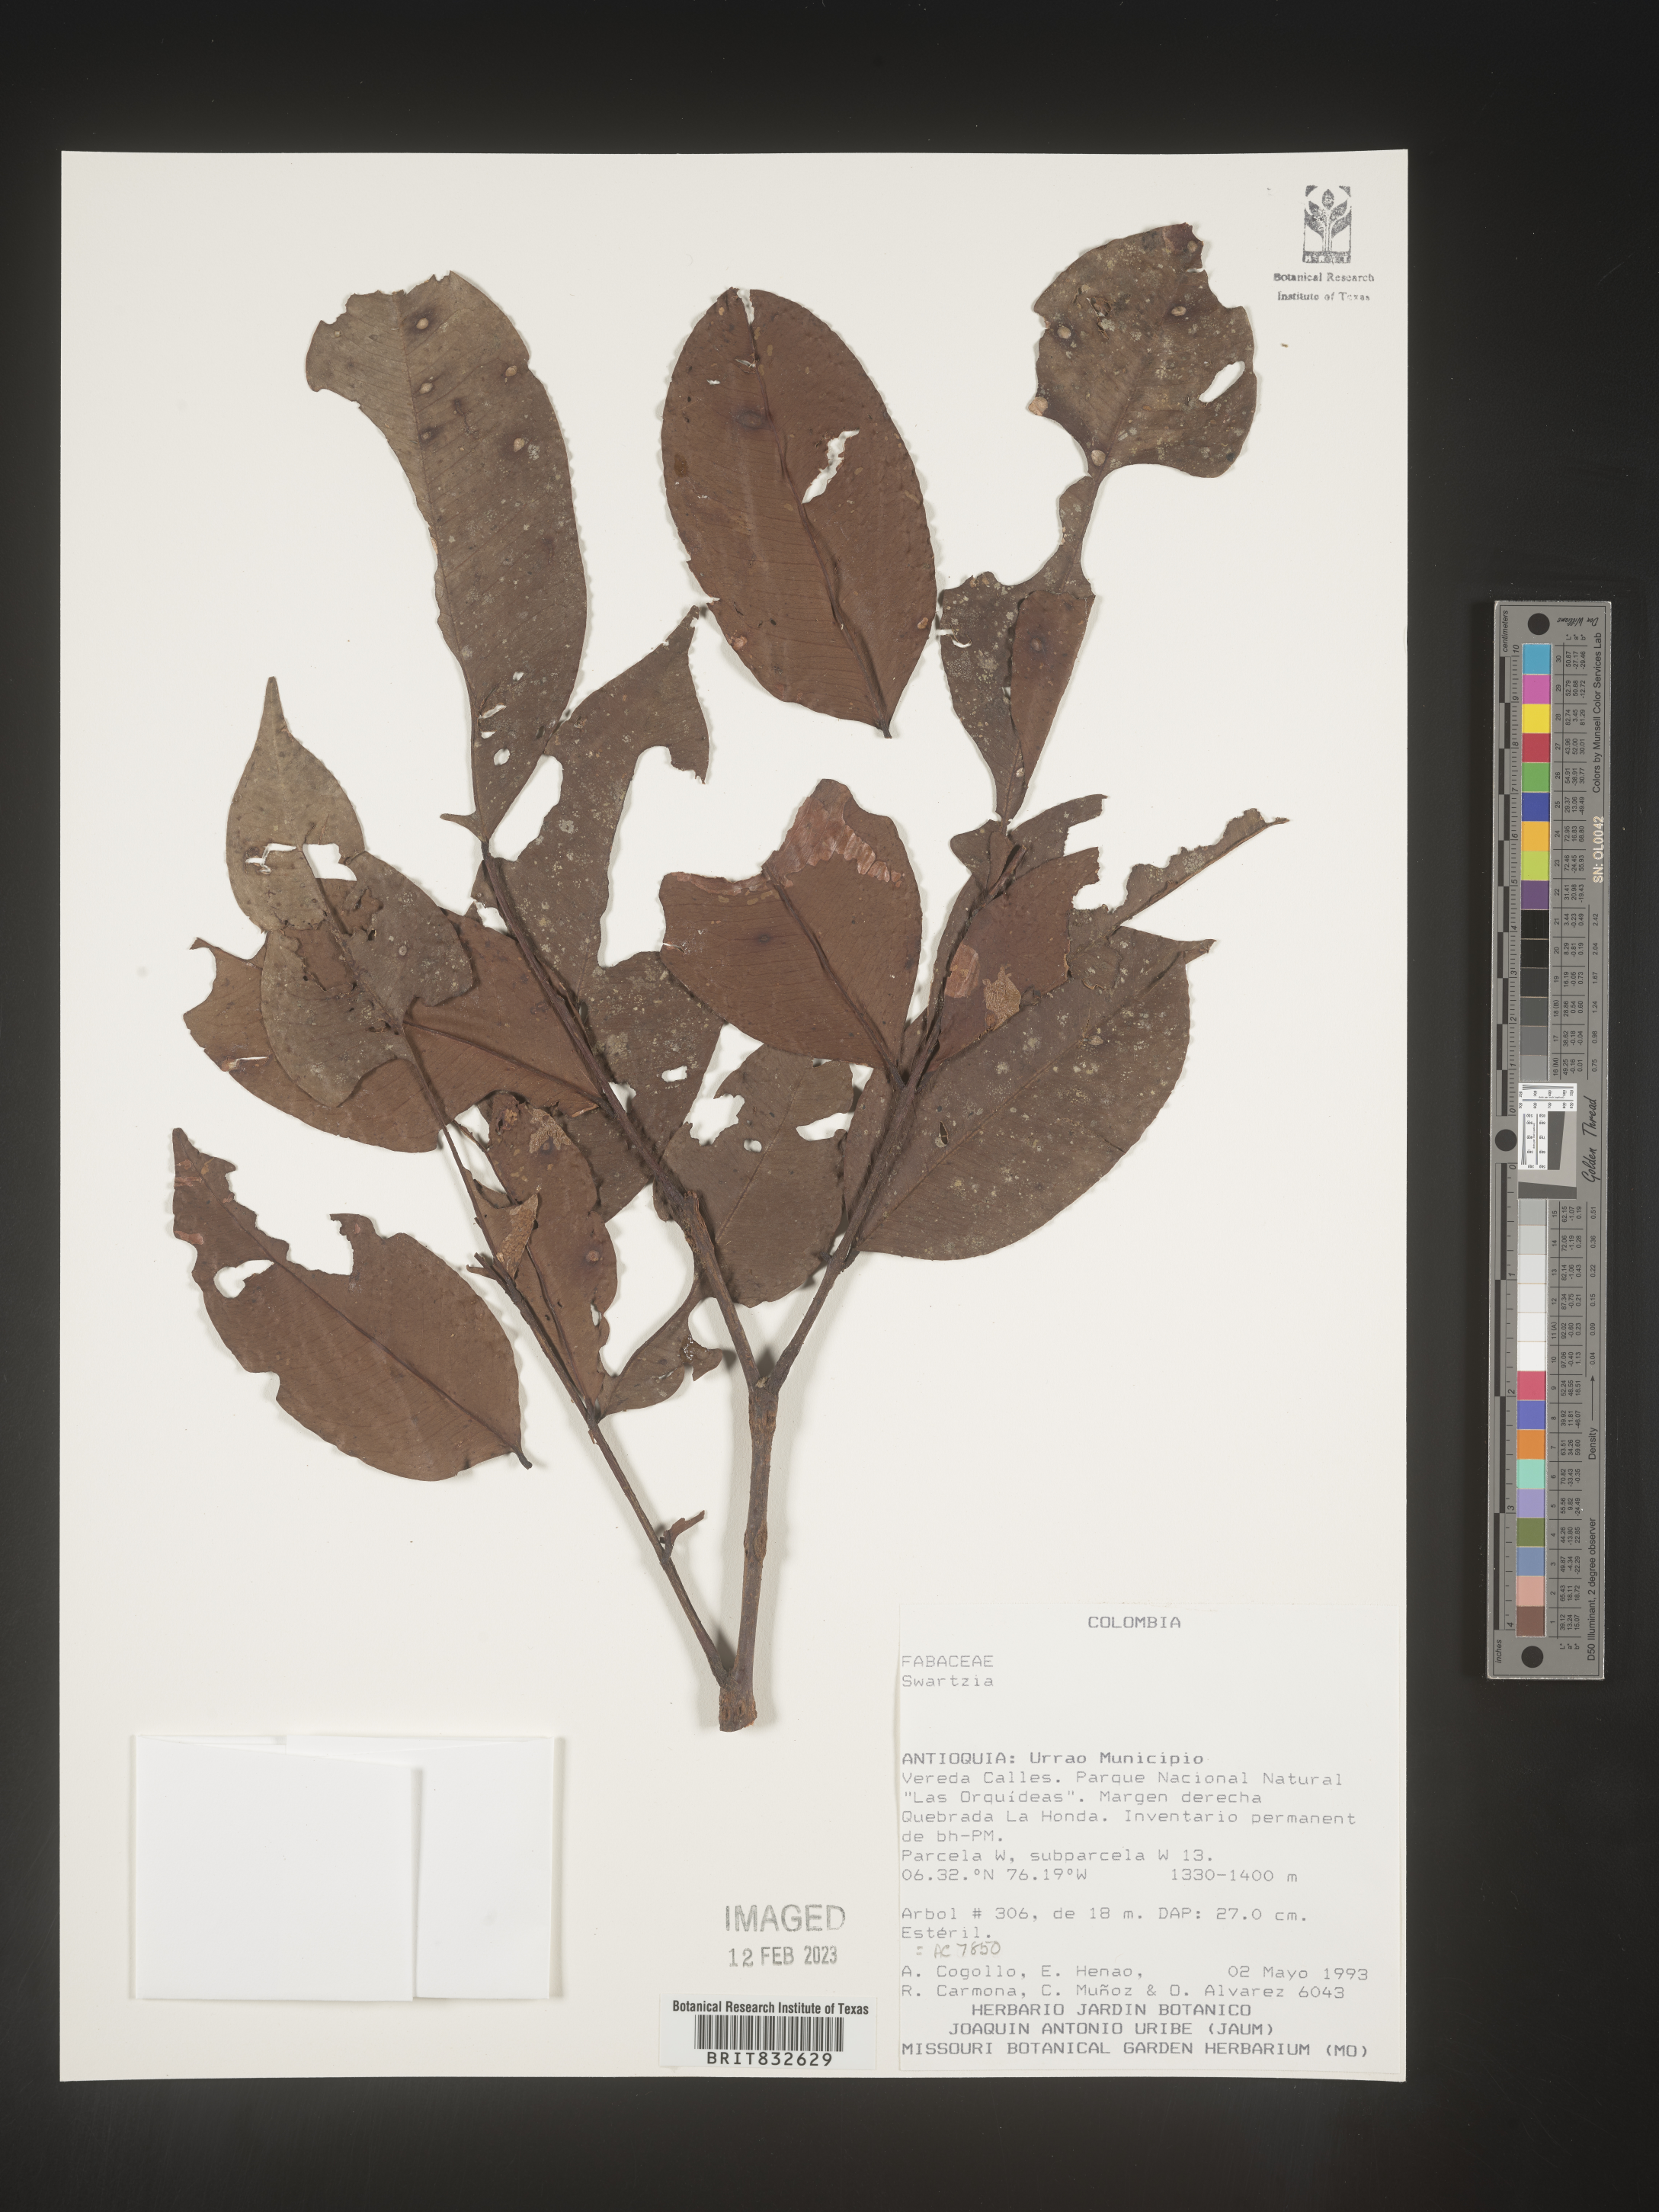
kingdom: Plantae
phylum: Tracheophyta
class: Magnoliopsida
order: Fabales
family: Fabaceae
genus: Swartzia
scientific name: Swartzia
